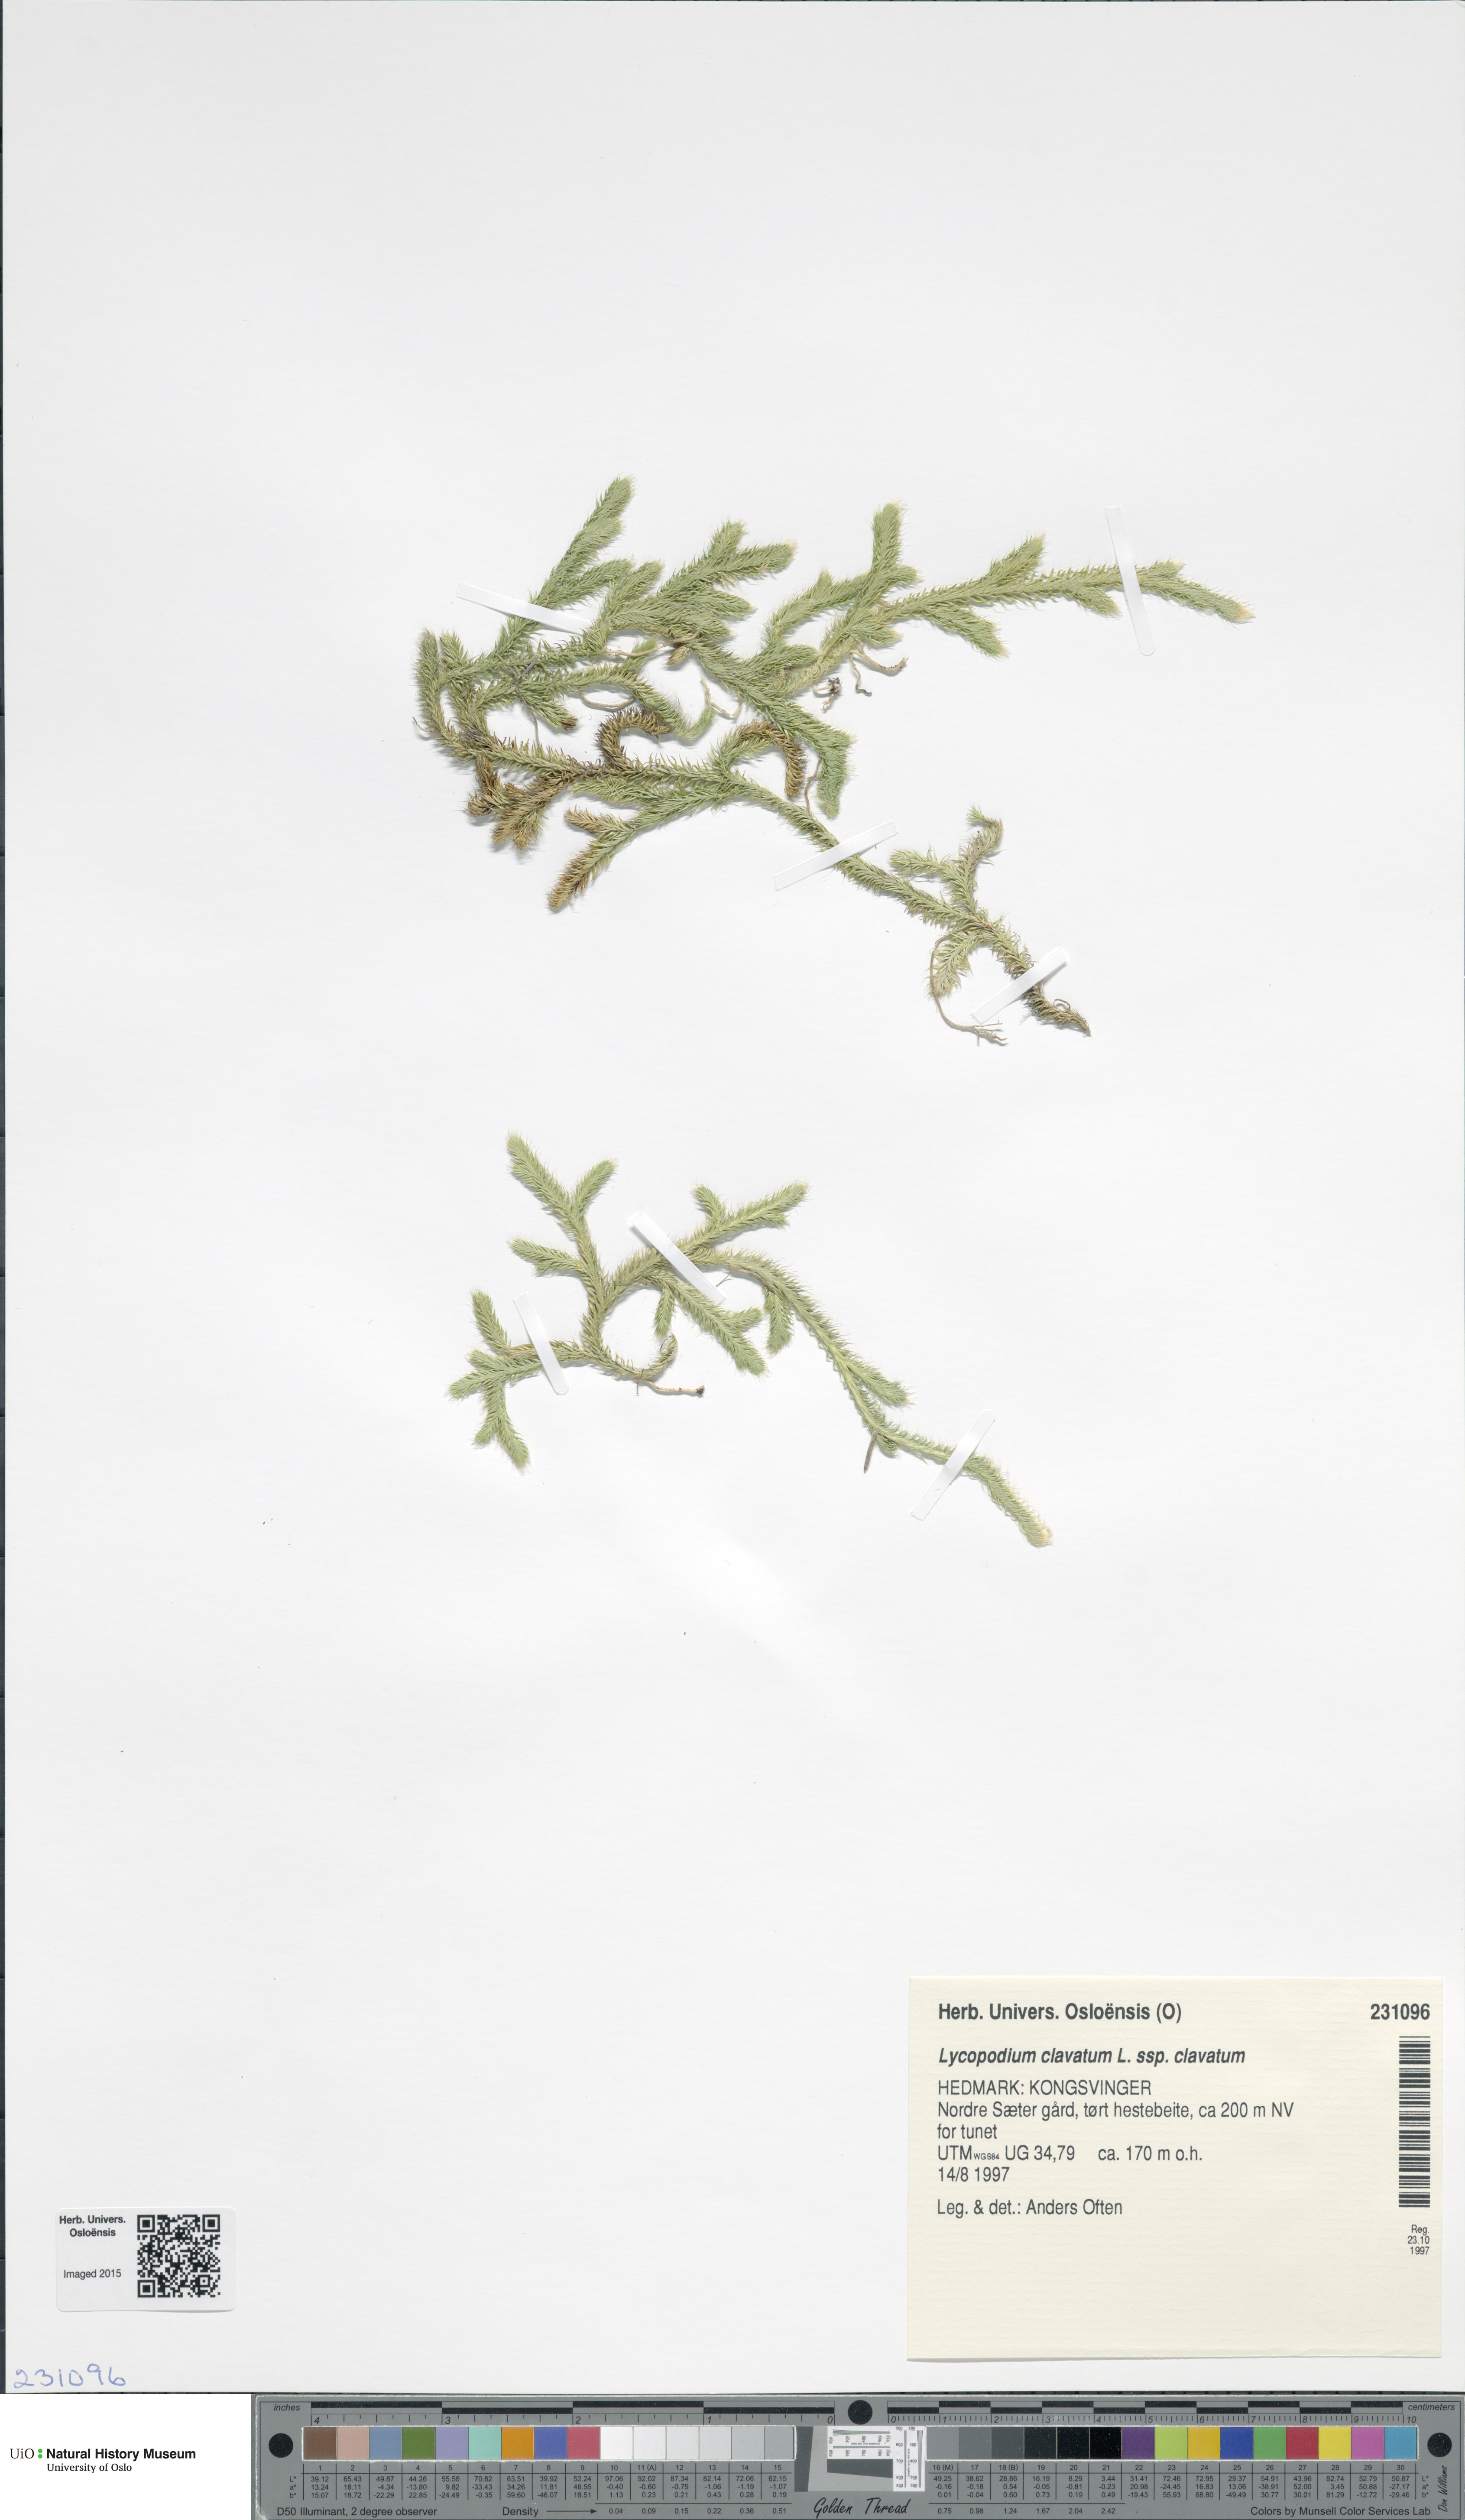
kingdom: Plantae
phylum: Tracheophyta
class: Lycopodiopsida
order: Lycopodiales
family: Lycopodiaceae
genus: Lycopodium
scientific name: Lycopodium clavatum
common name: Stag's-horn clubmoss
